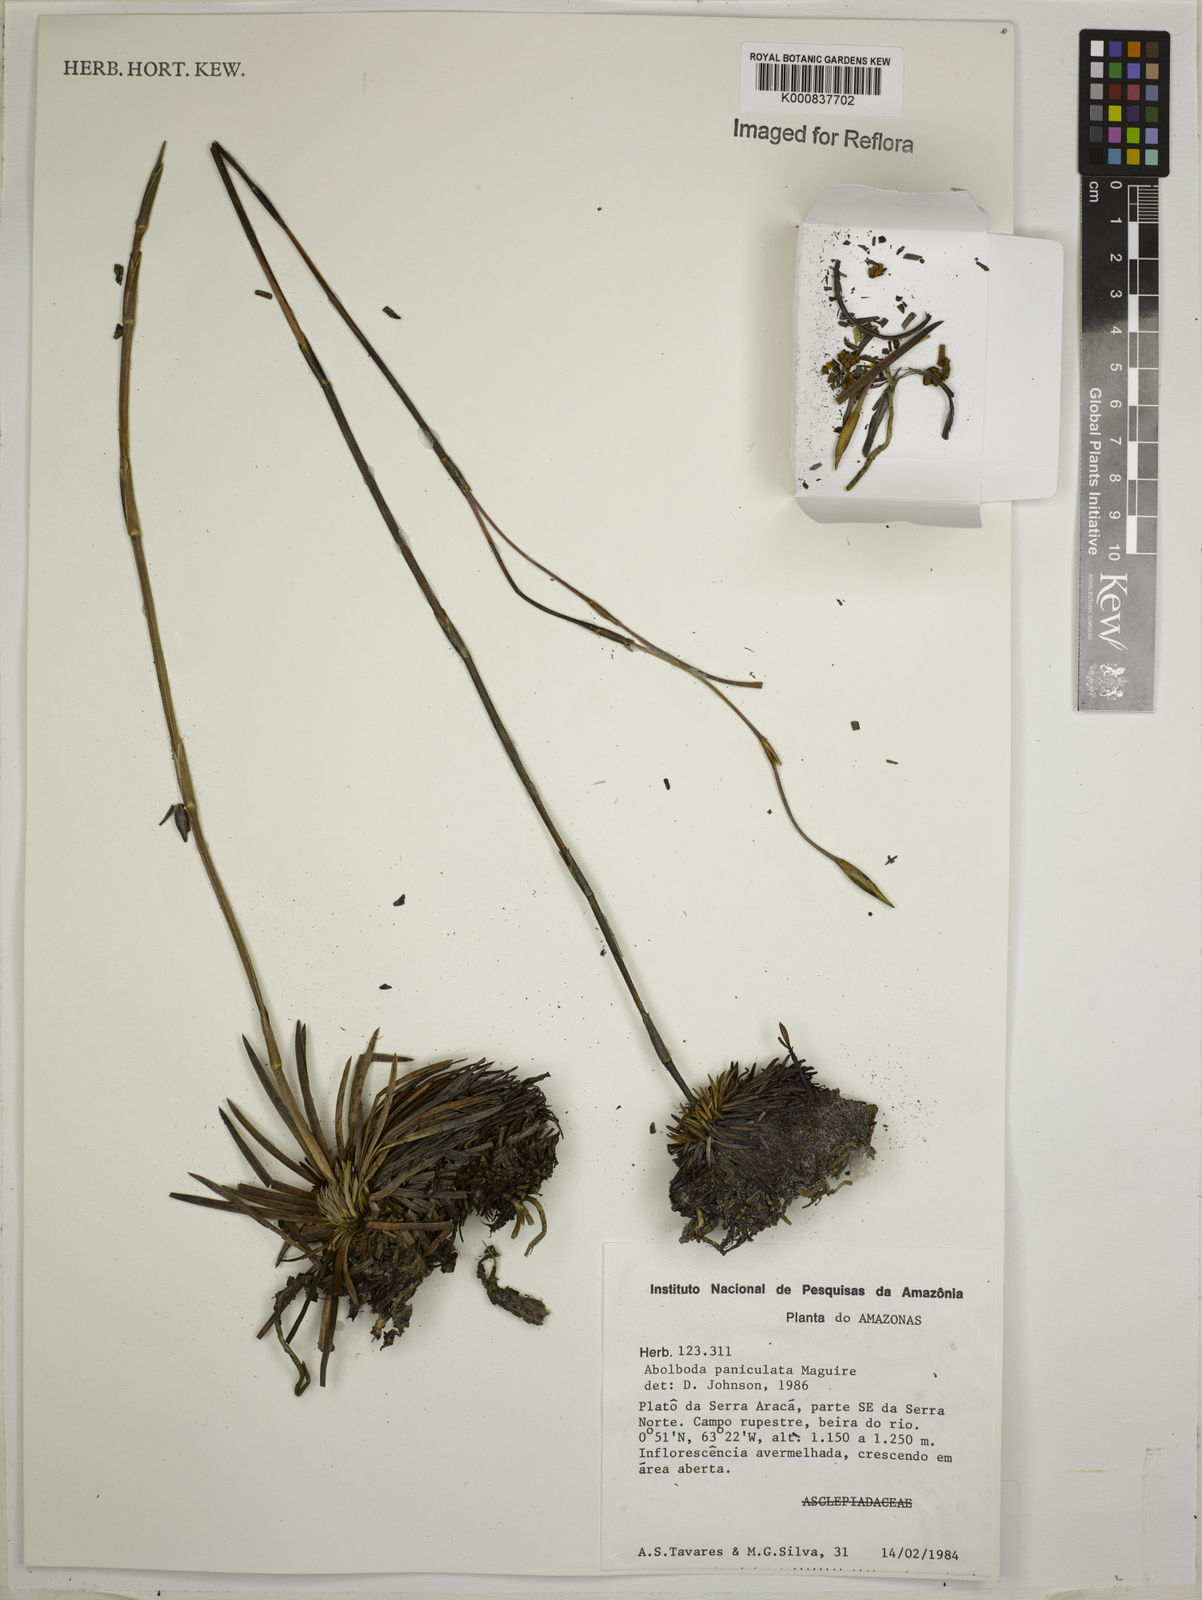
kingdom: Plantae
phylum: Tracheophyta
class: Liliopsida
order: Poales
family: Xyridaceae
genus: Abolboda
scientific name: Abolboda paniculata
